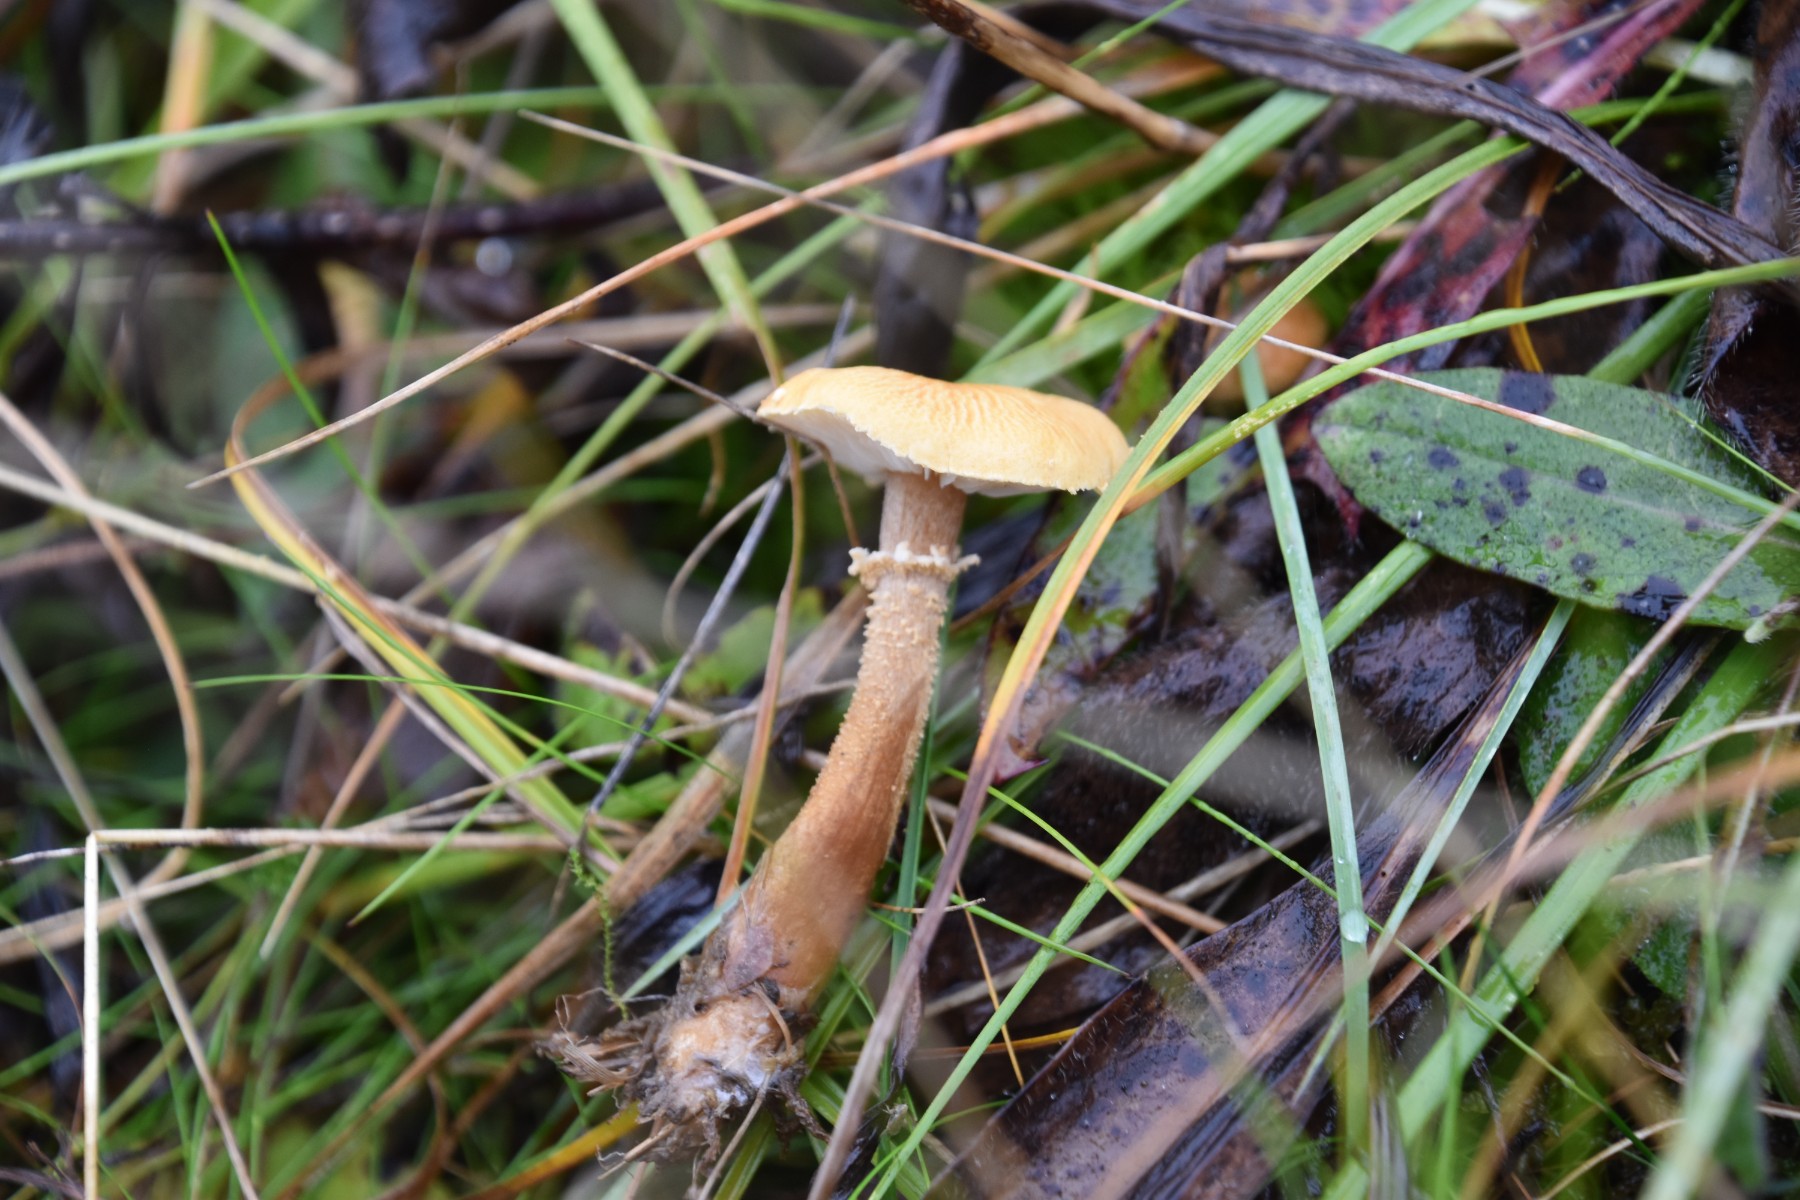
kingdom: Fungi
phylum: Basidiomycota
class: Agaricomycetes
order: Agaricales
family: Tricholomataceae
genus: Cystoderma
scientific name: Cystoderma amianthinum
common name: okkergul grynhat
